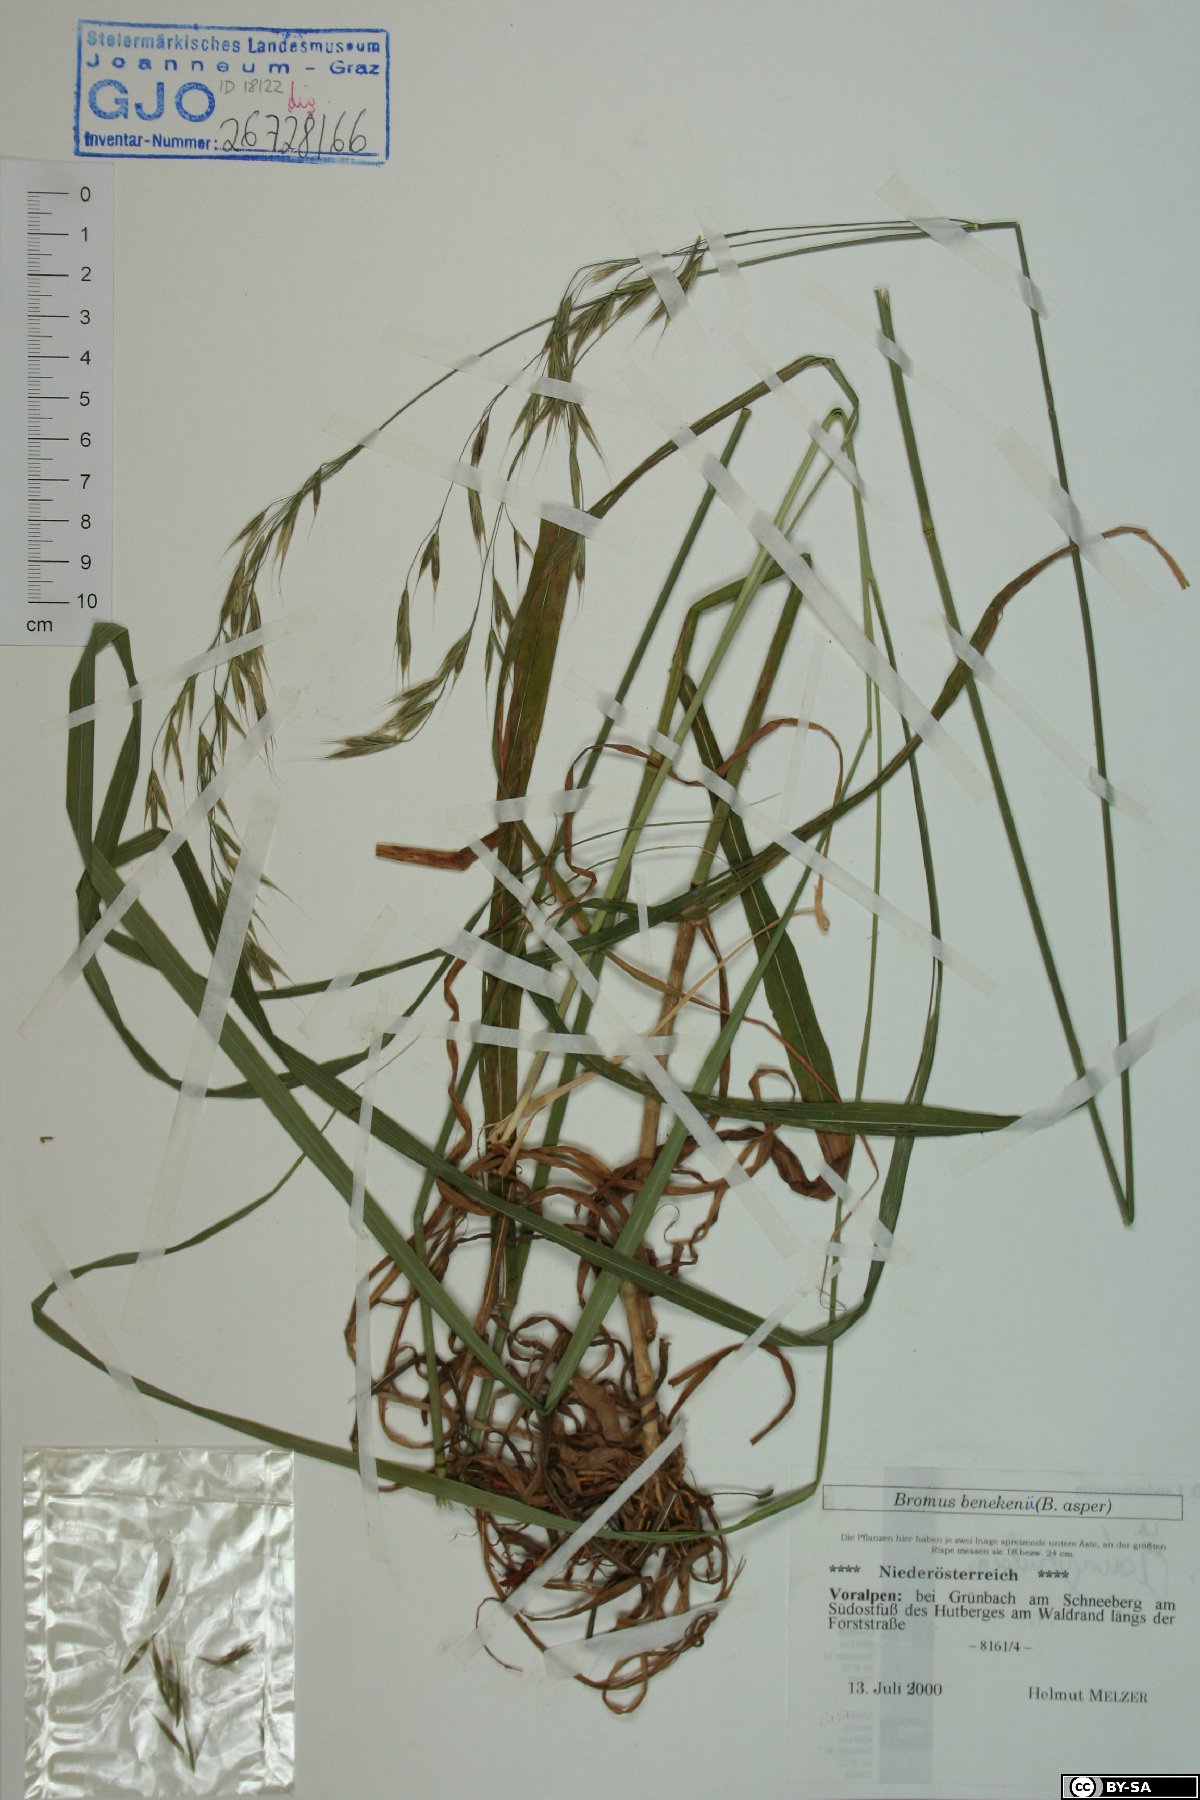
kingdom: Plantae
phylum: Tracheophyta
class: Liliopsida
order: Poales
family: Poaceae
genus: Bromus
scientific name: Bromus benekenii
